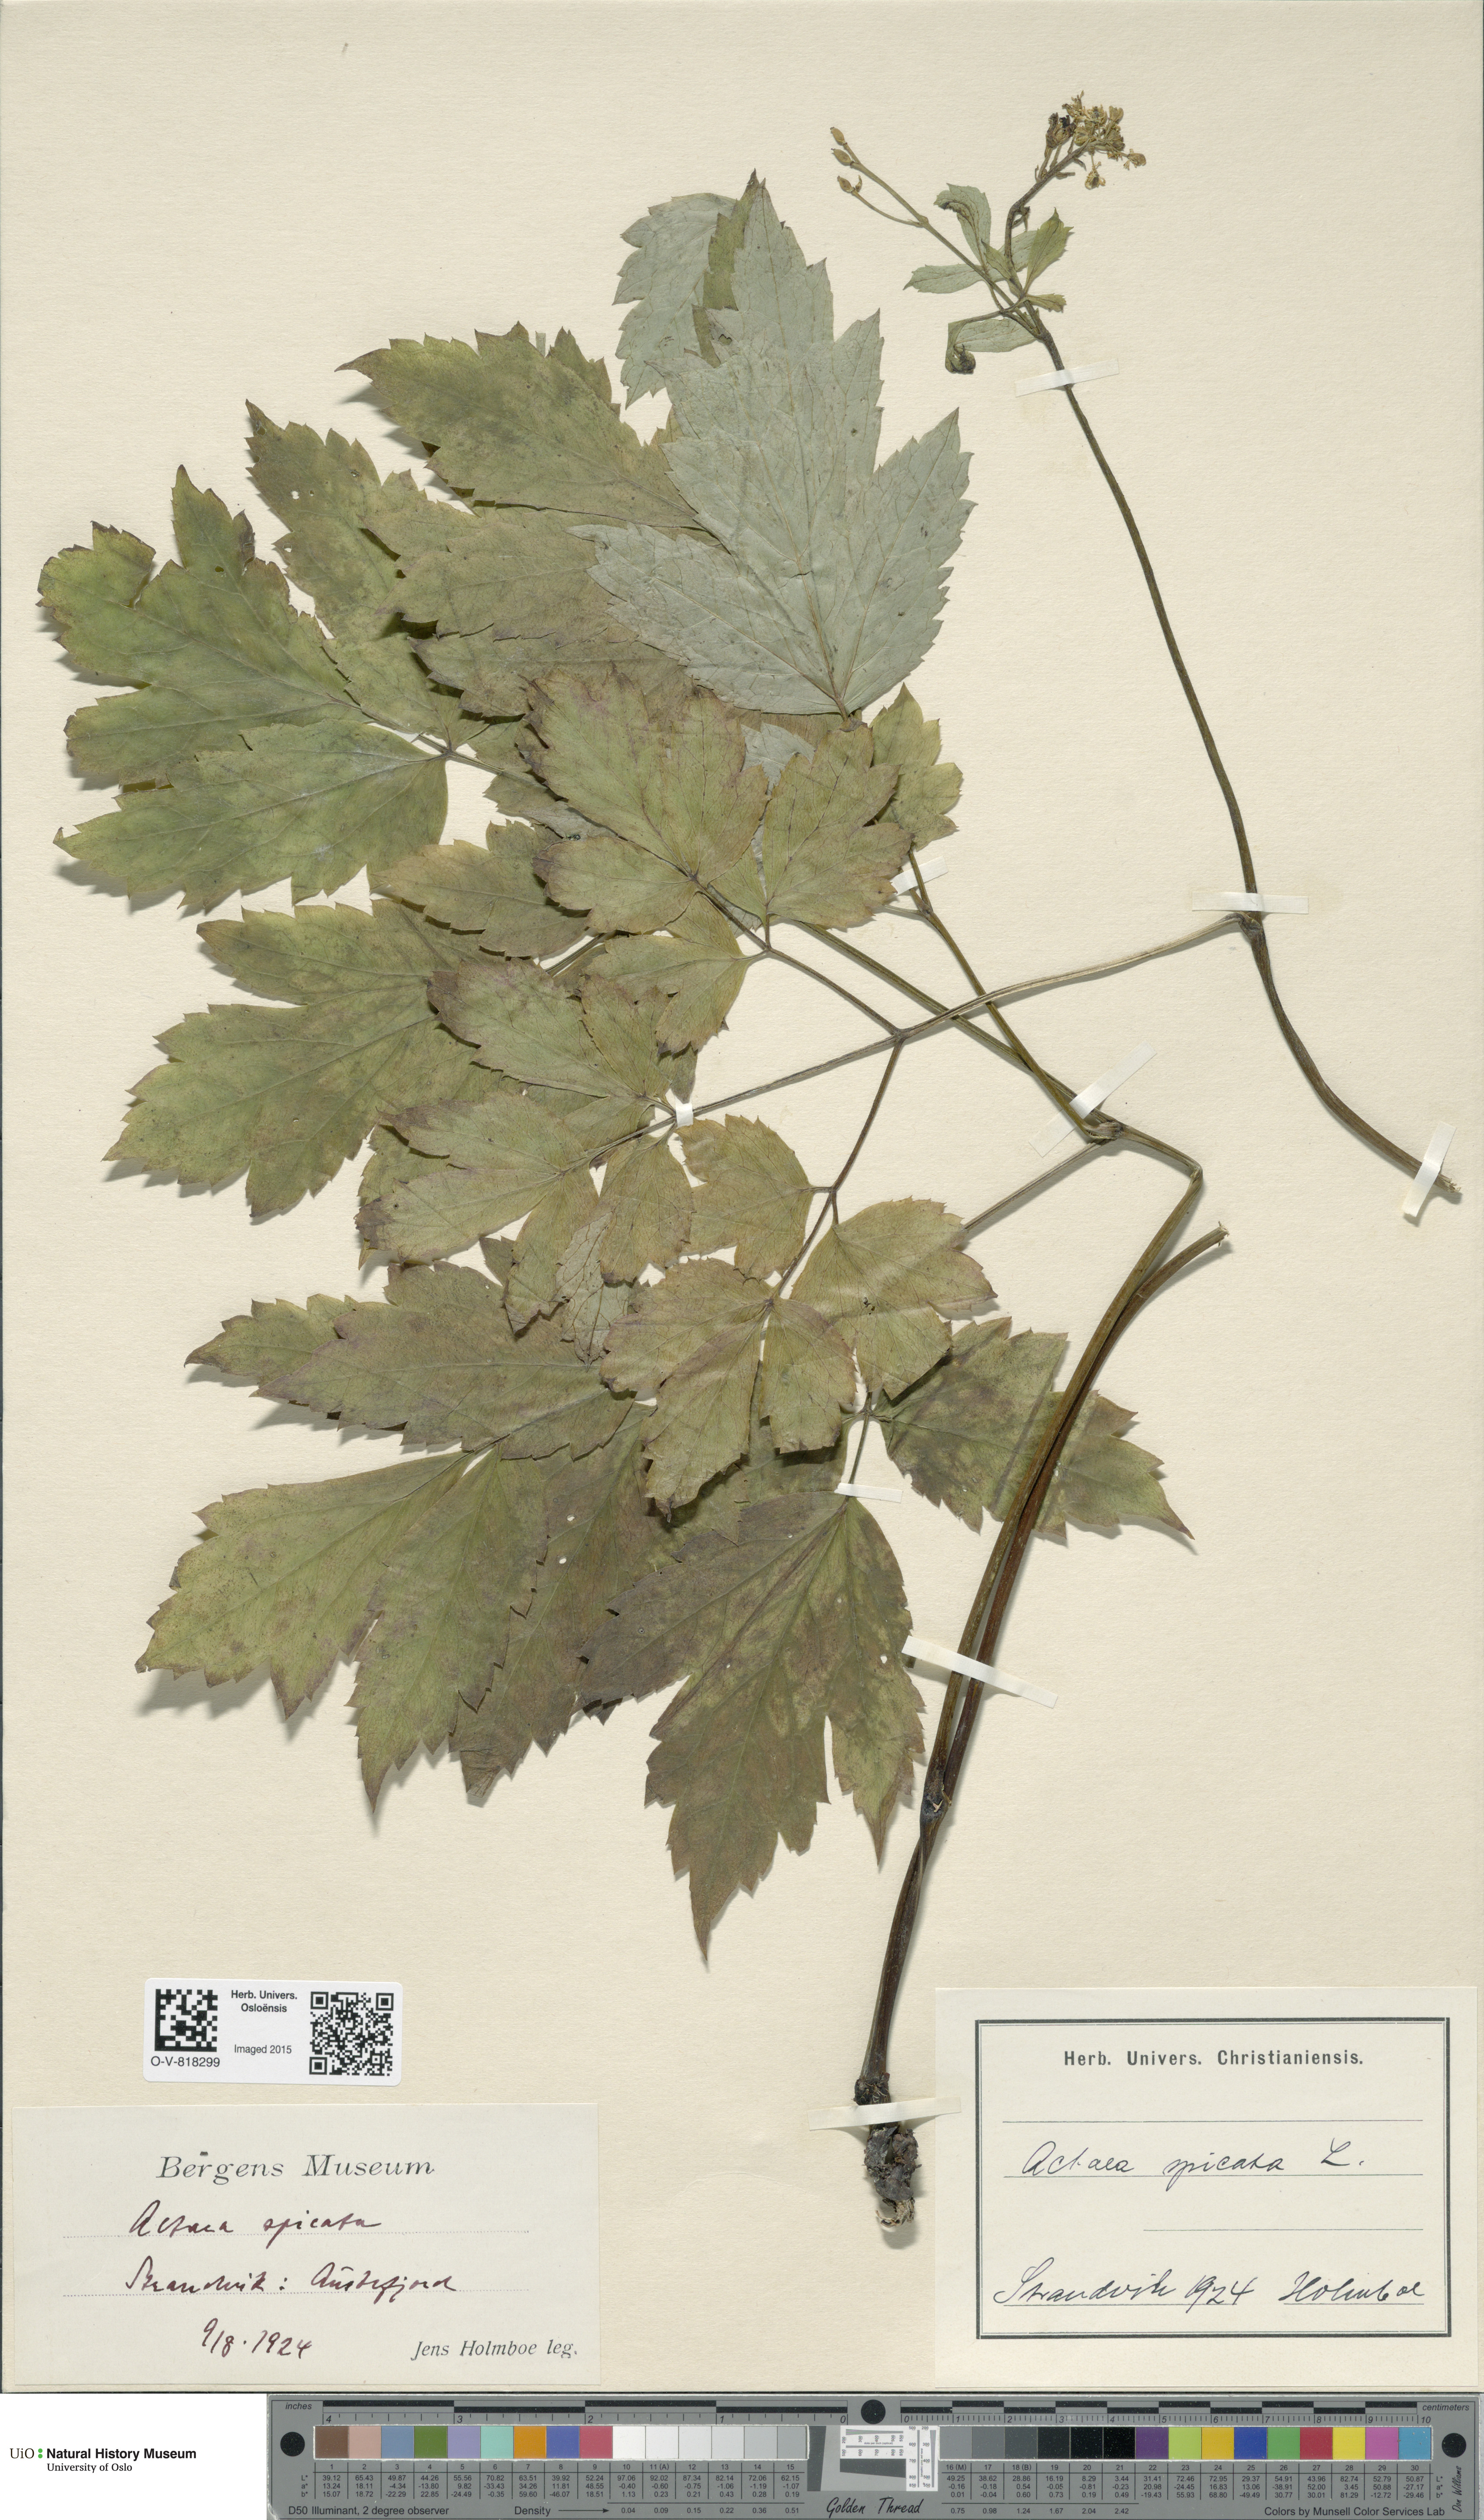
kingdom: Plantae
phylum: Tracheophyta
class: Magnoliopsida
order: Ranunculales
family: Ranunculaceae
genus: Actaea
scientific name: Actaea spicata
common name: Baneberry
